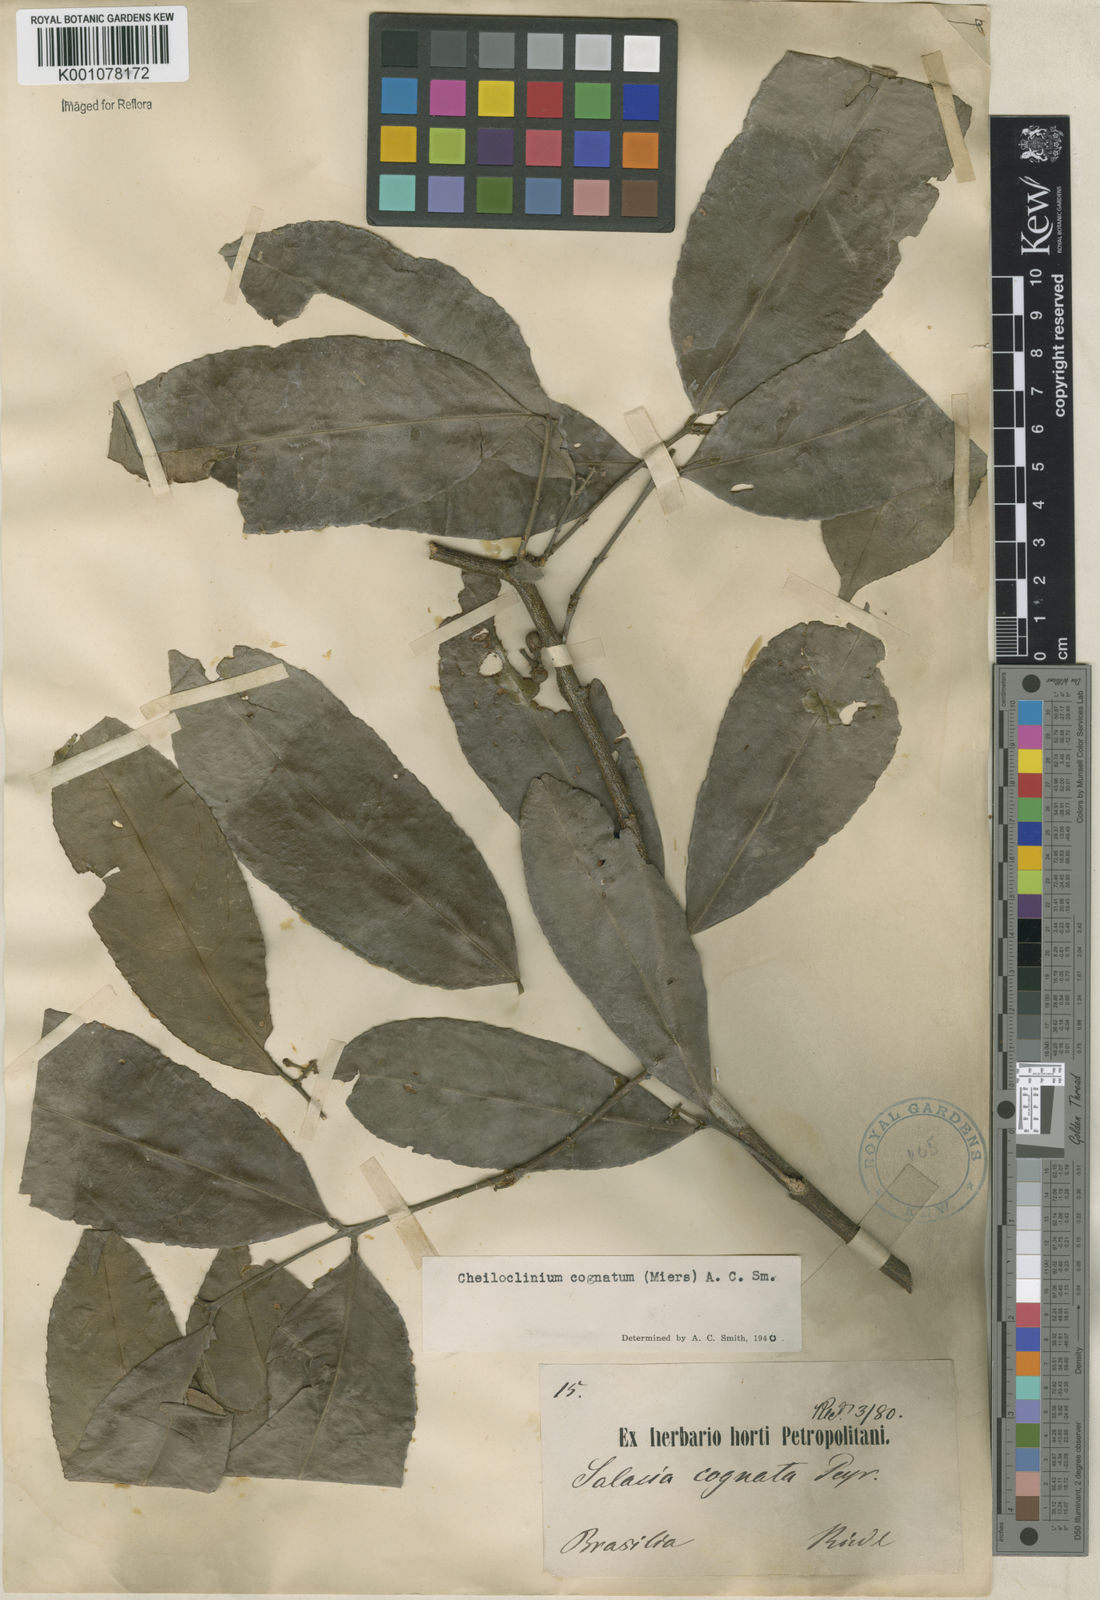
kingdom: Plantae
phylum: Tracheophyta
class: Magnoliopsida
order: Celastrales
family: Celastraceae
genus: Cheiloclinium
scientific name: Cheiloclinium cognatum
